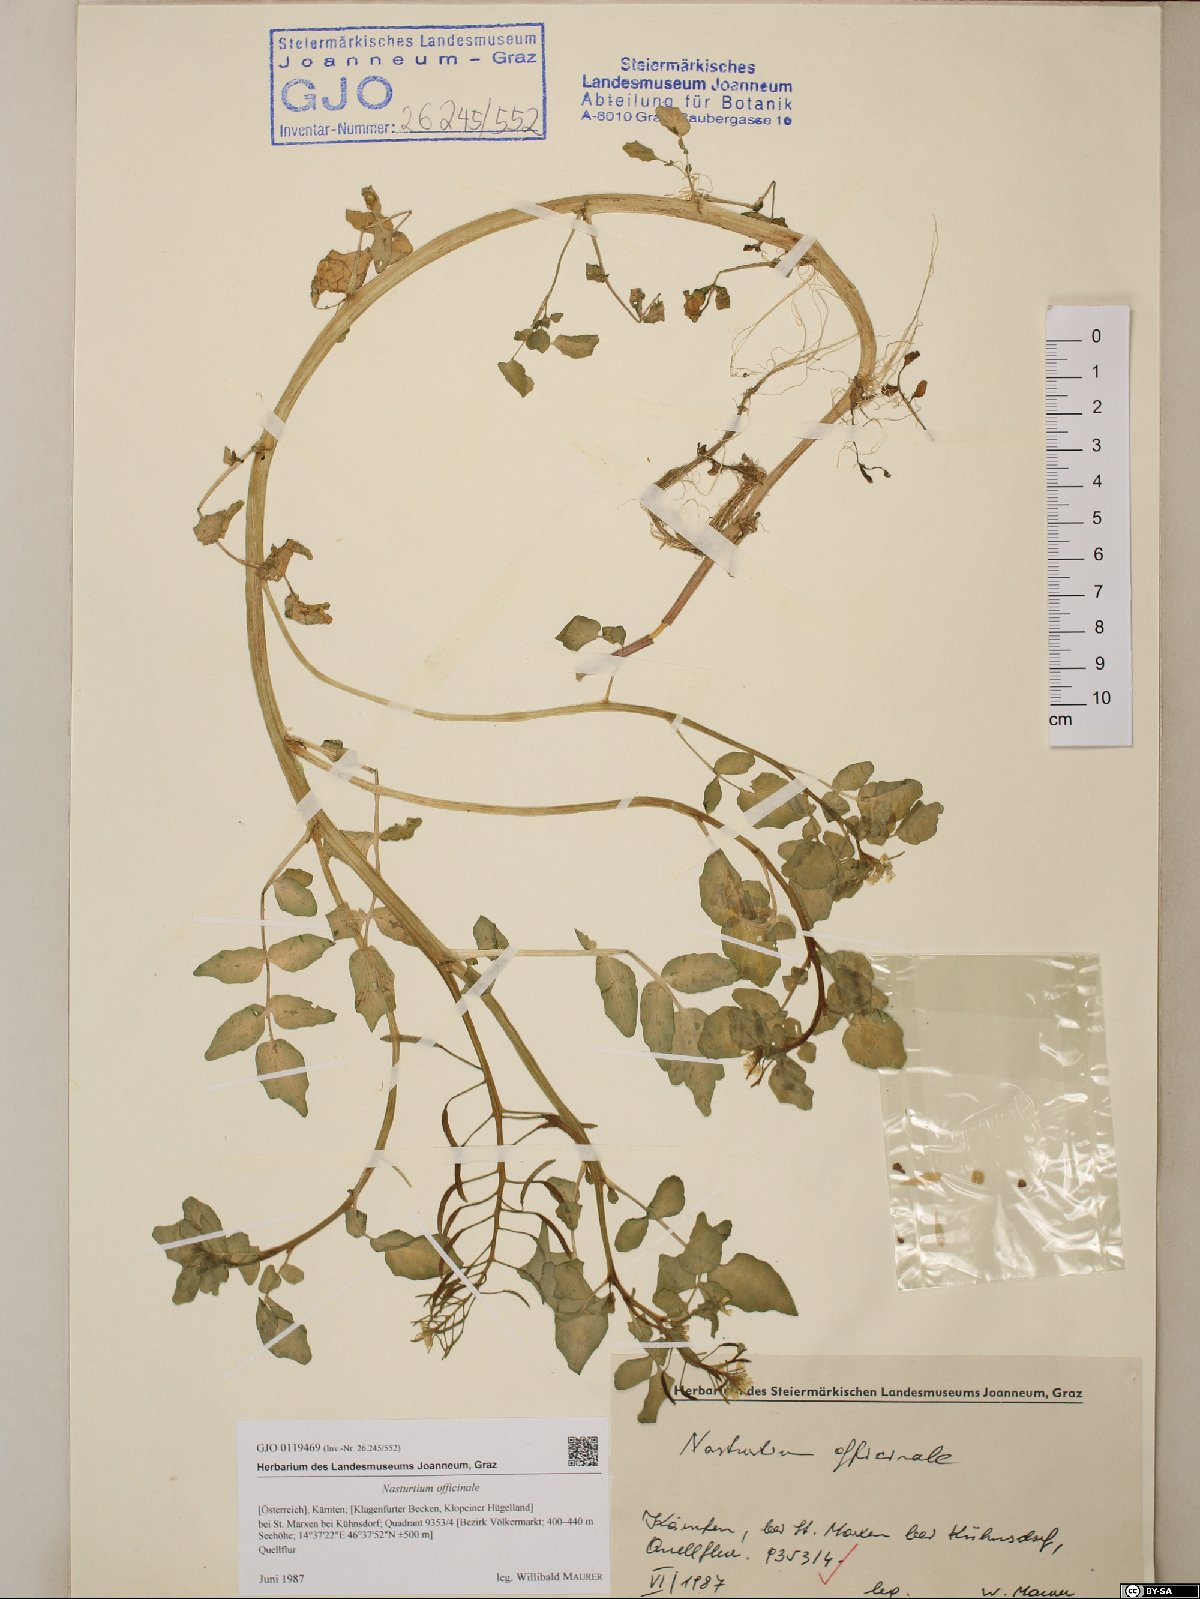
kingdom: Plantae
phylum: Tracheophyta
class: Magnoliopsida
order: Brassicales
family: Brassicaceae
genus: Nasturtium
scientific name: Nasturtium officinale
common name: Watercress
